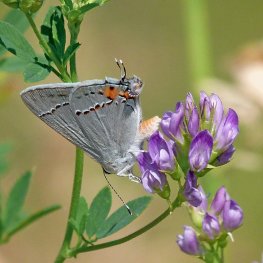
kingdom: Animalia
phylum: Arthropoda
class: Insecta
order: Lepidoptera
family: Lycaenidae
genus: Strymon
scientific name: Strymon melinus
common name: Gray Hairstreak
